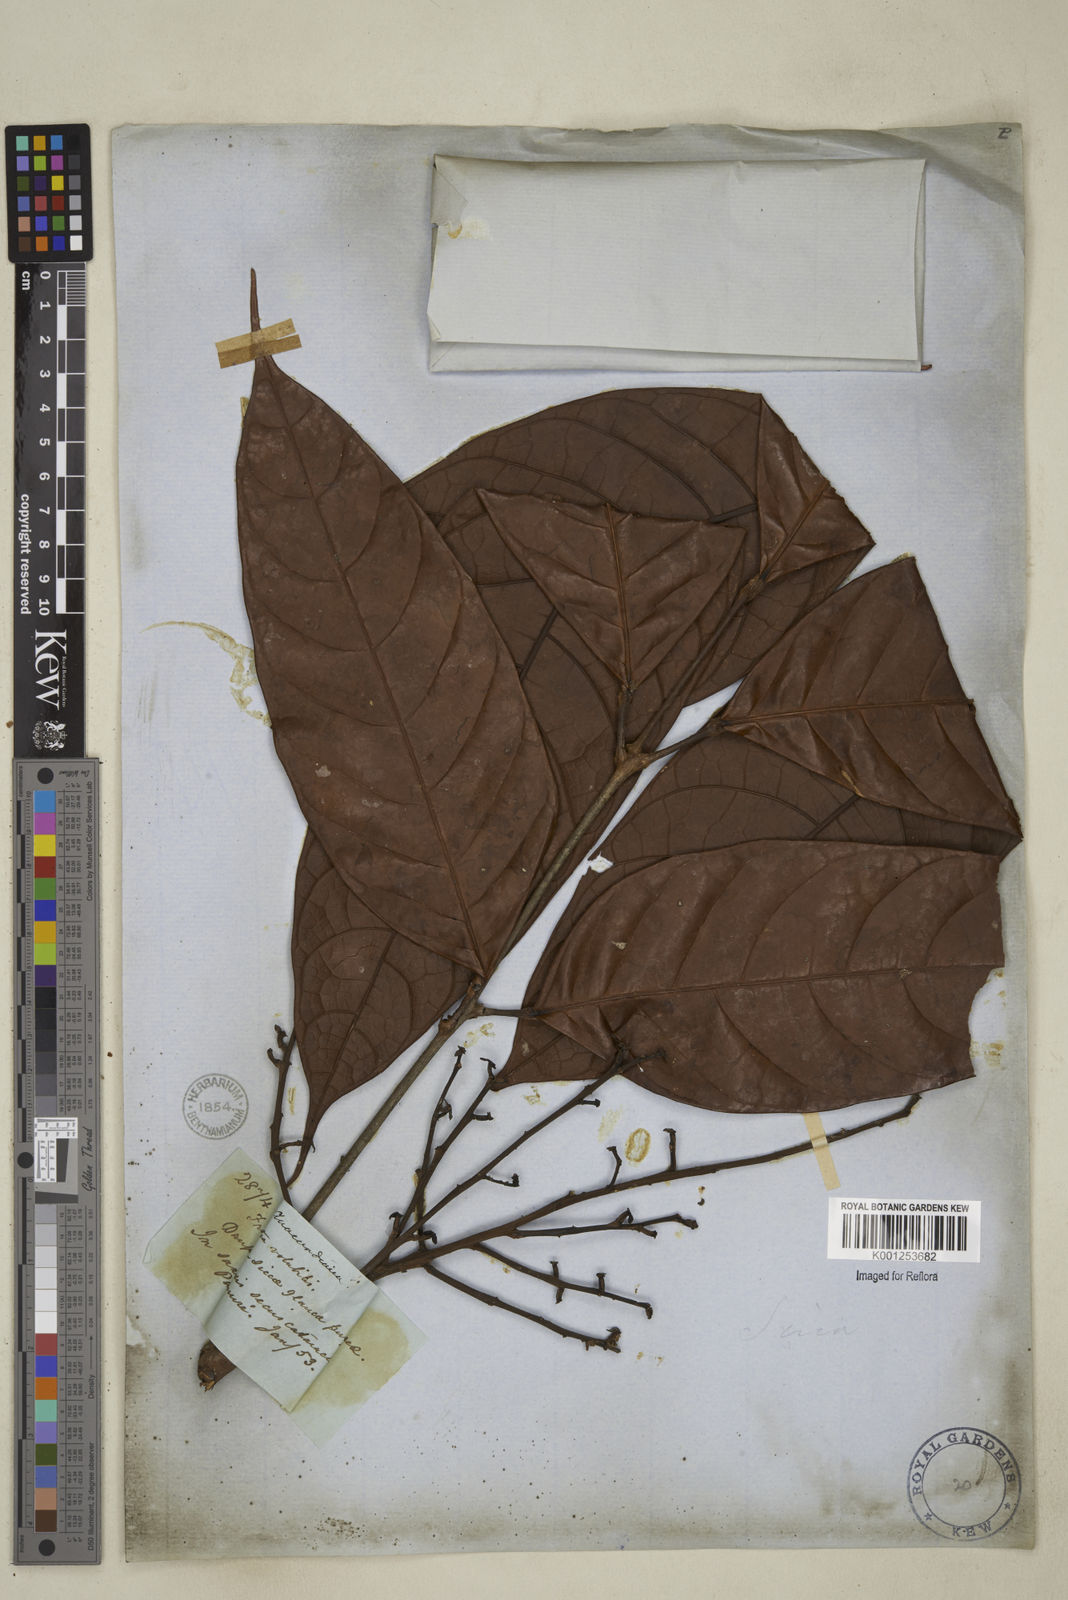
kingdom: Plantae
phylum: Tracheophyta
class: Magnoliopsida
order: Sapindales
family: Burseraceae
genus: Dacryodes
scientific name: Dacryodes
